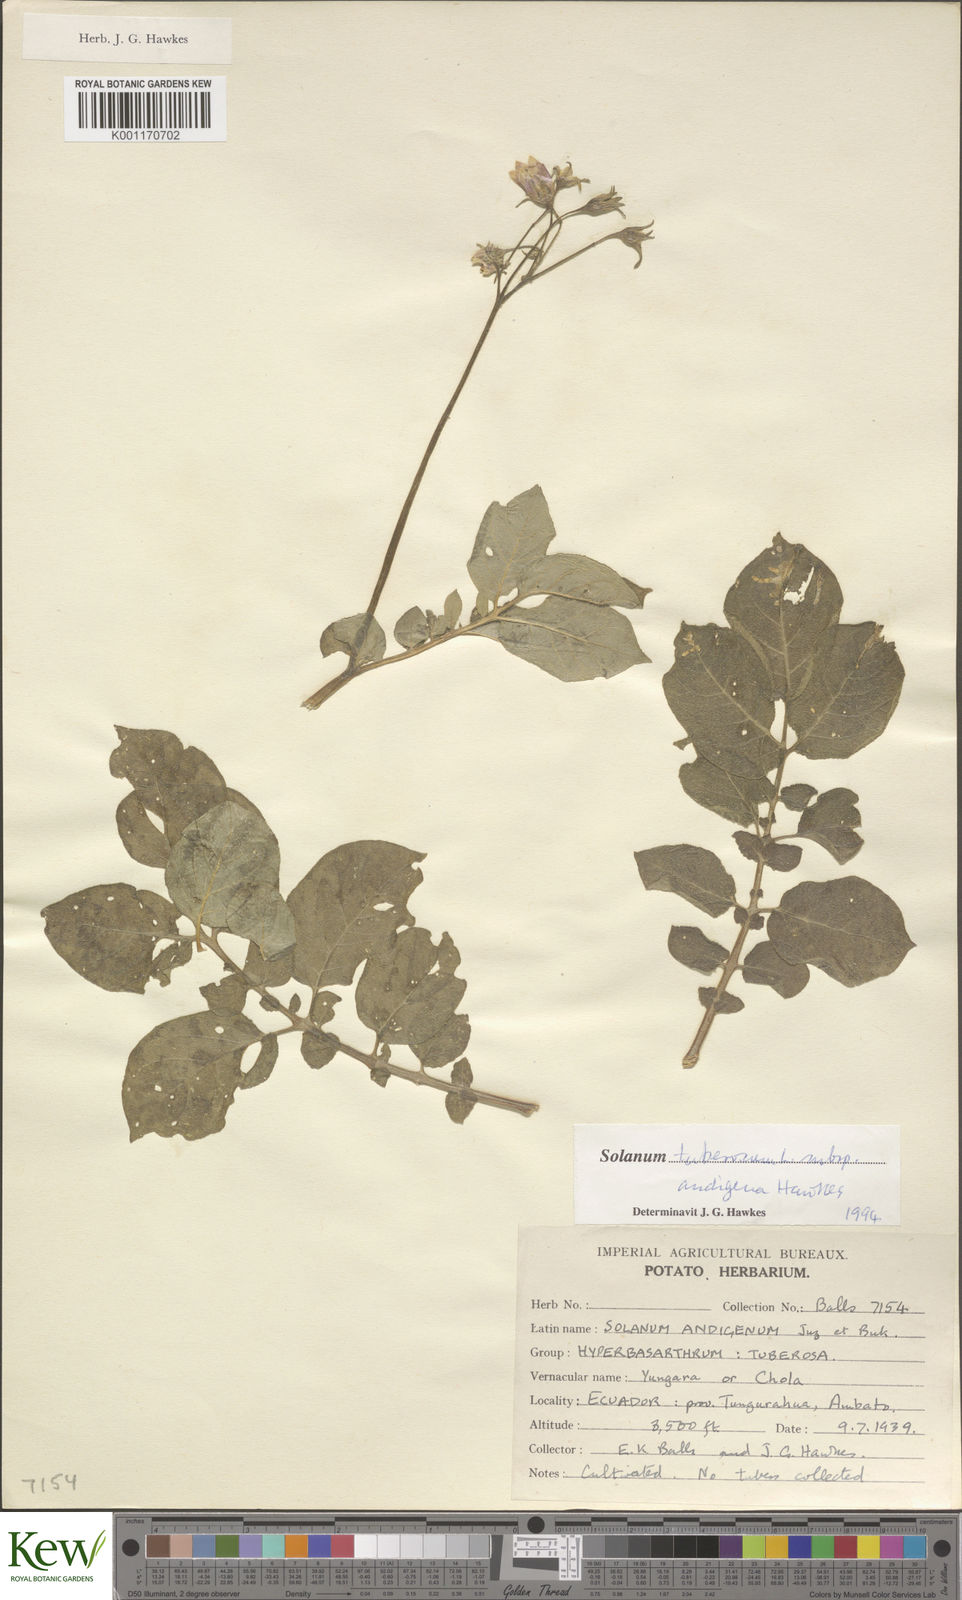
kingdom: Plantae
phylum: Tracheophyta
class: Magnoliopsida
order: Solanales
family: Solanaceae
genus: Solanum
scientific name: Solanum tuberosum
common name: Potato
